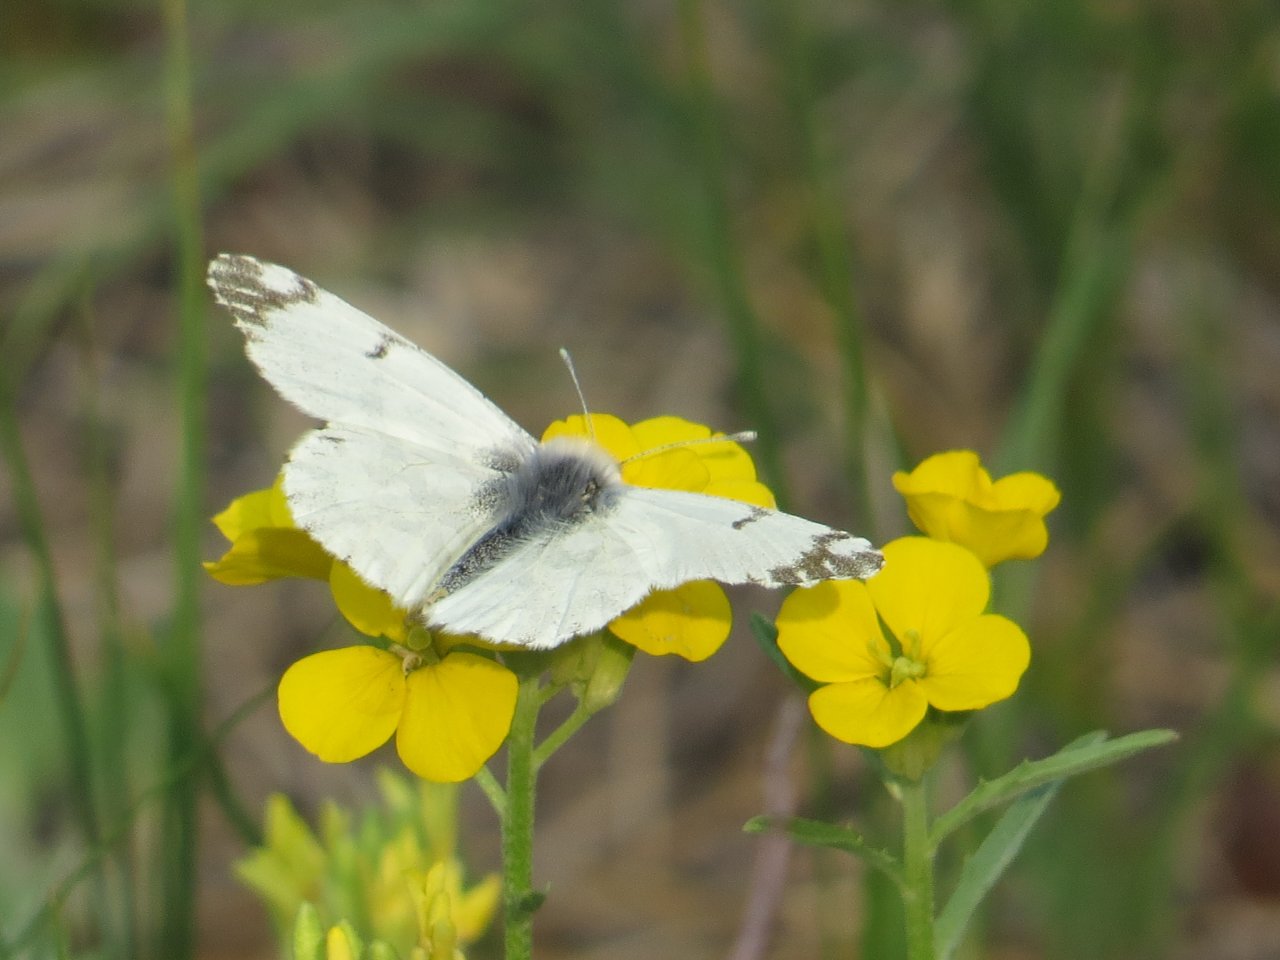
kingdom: Animalia
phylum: Arthropoda
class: Insecta
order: Lepidoptera
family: Pieridae
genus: Euchloe
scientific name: Euchloe ausonides
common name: Large Marble
